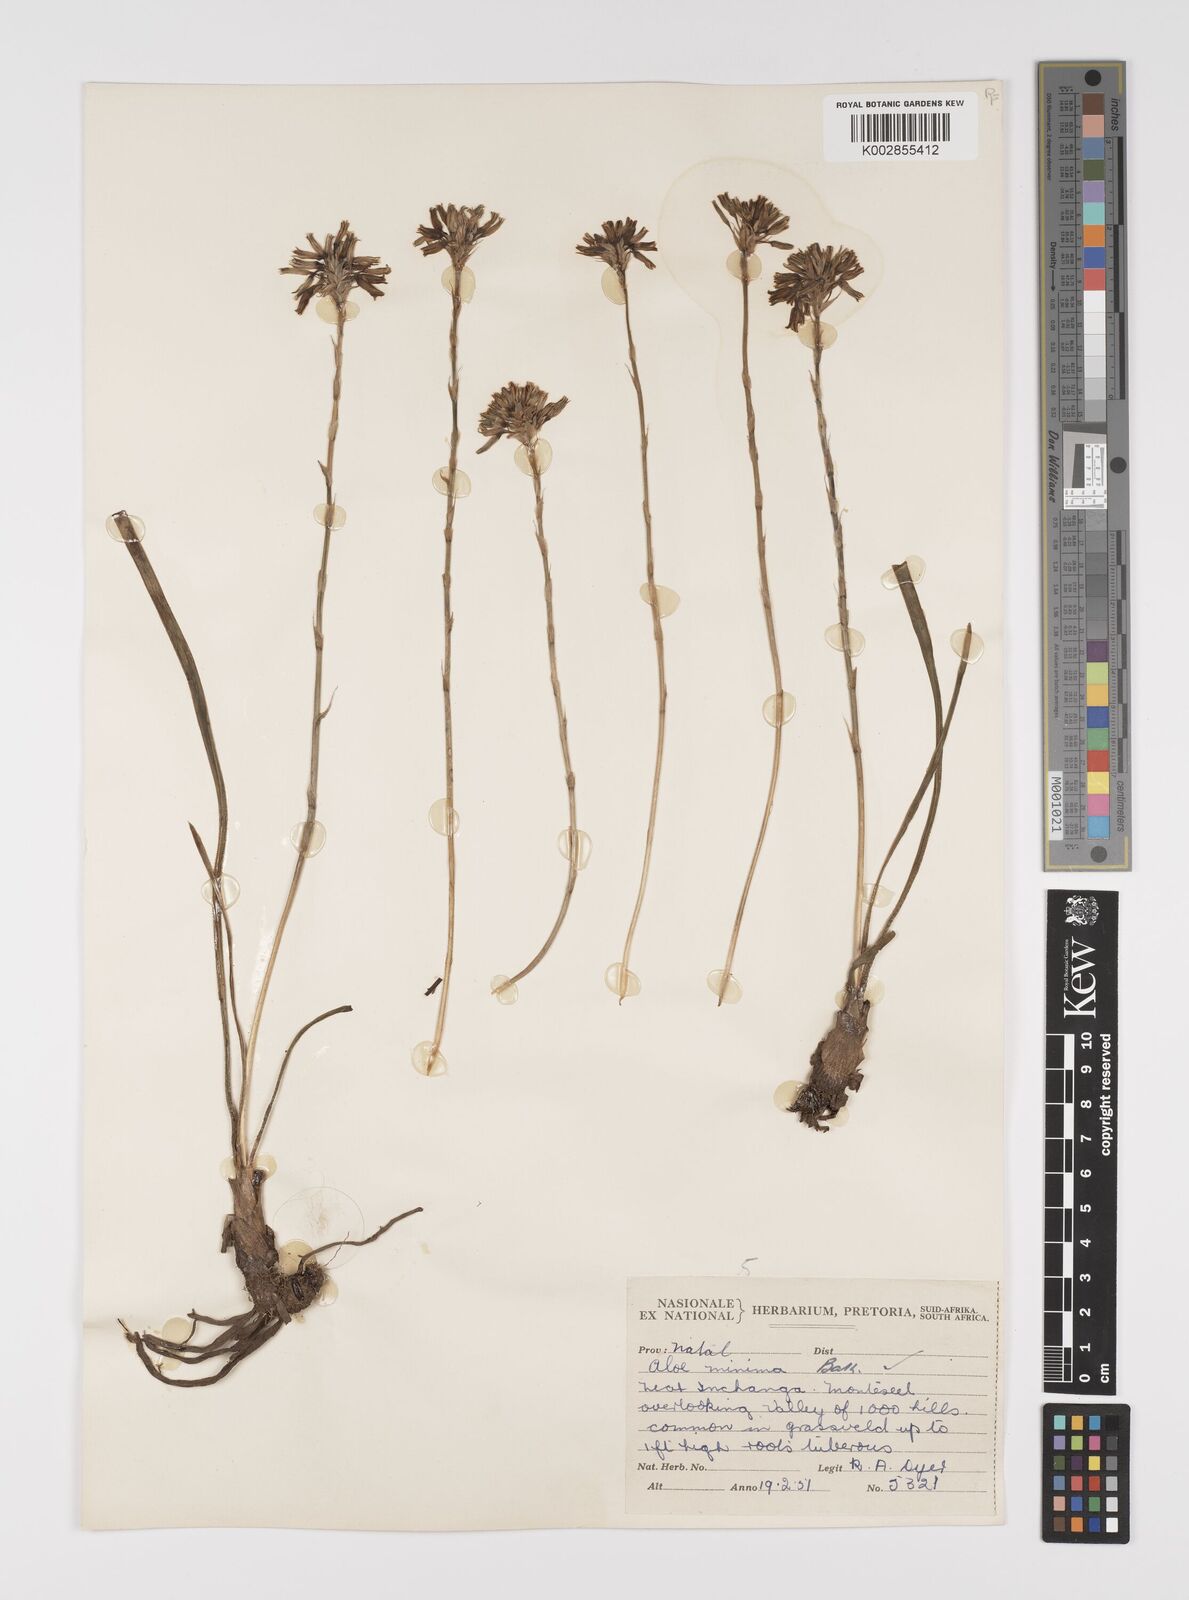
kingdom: Plantae
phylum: Tracheophyta
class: Liliopsida
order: Asparagales
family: Asphodelaceae
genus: Aloe
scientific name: Aloe minima
